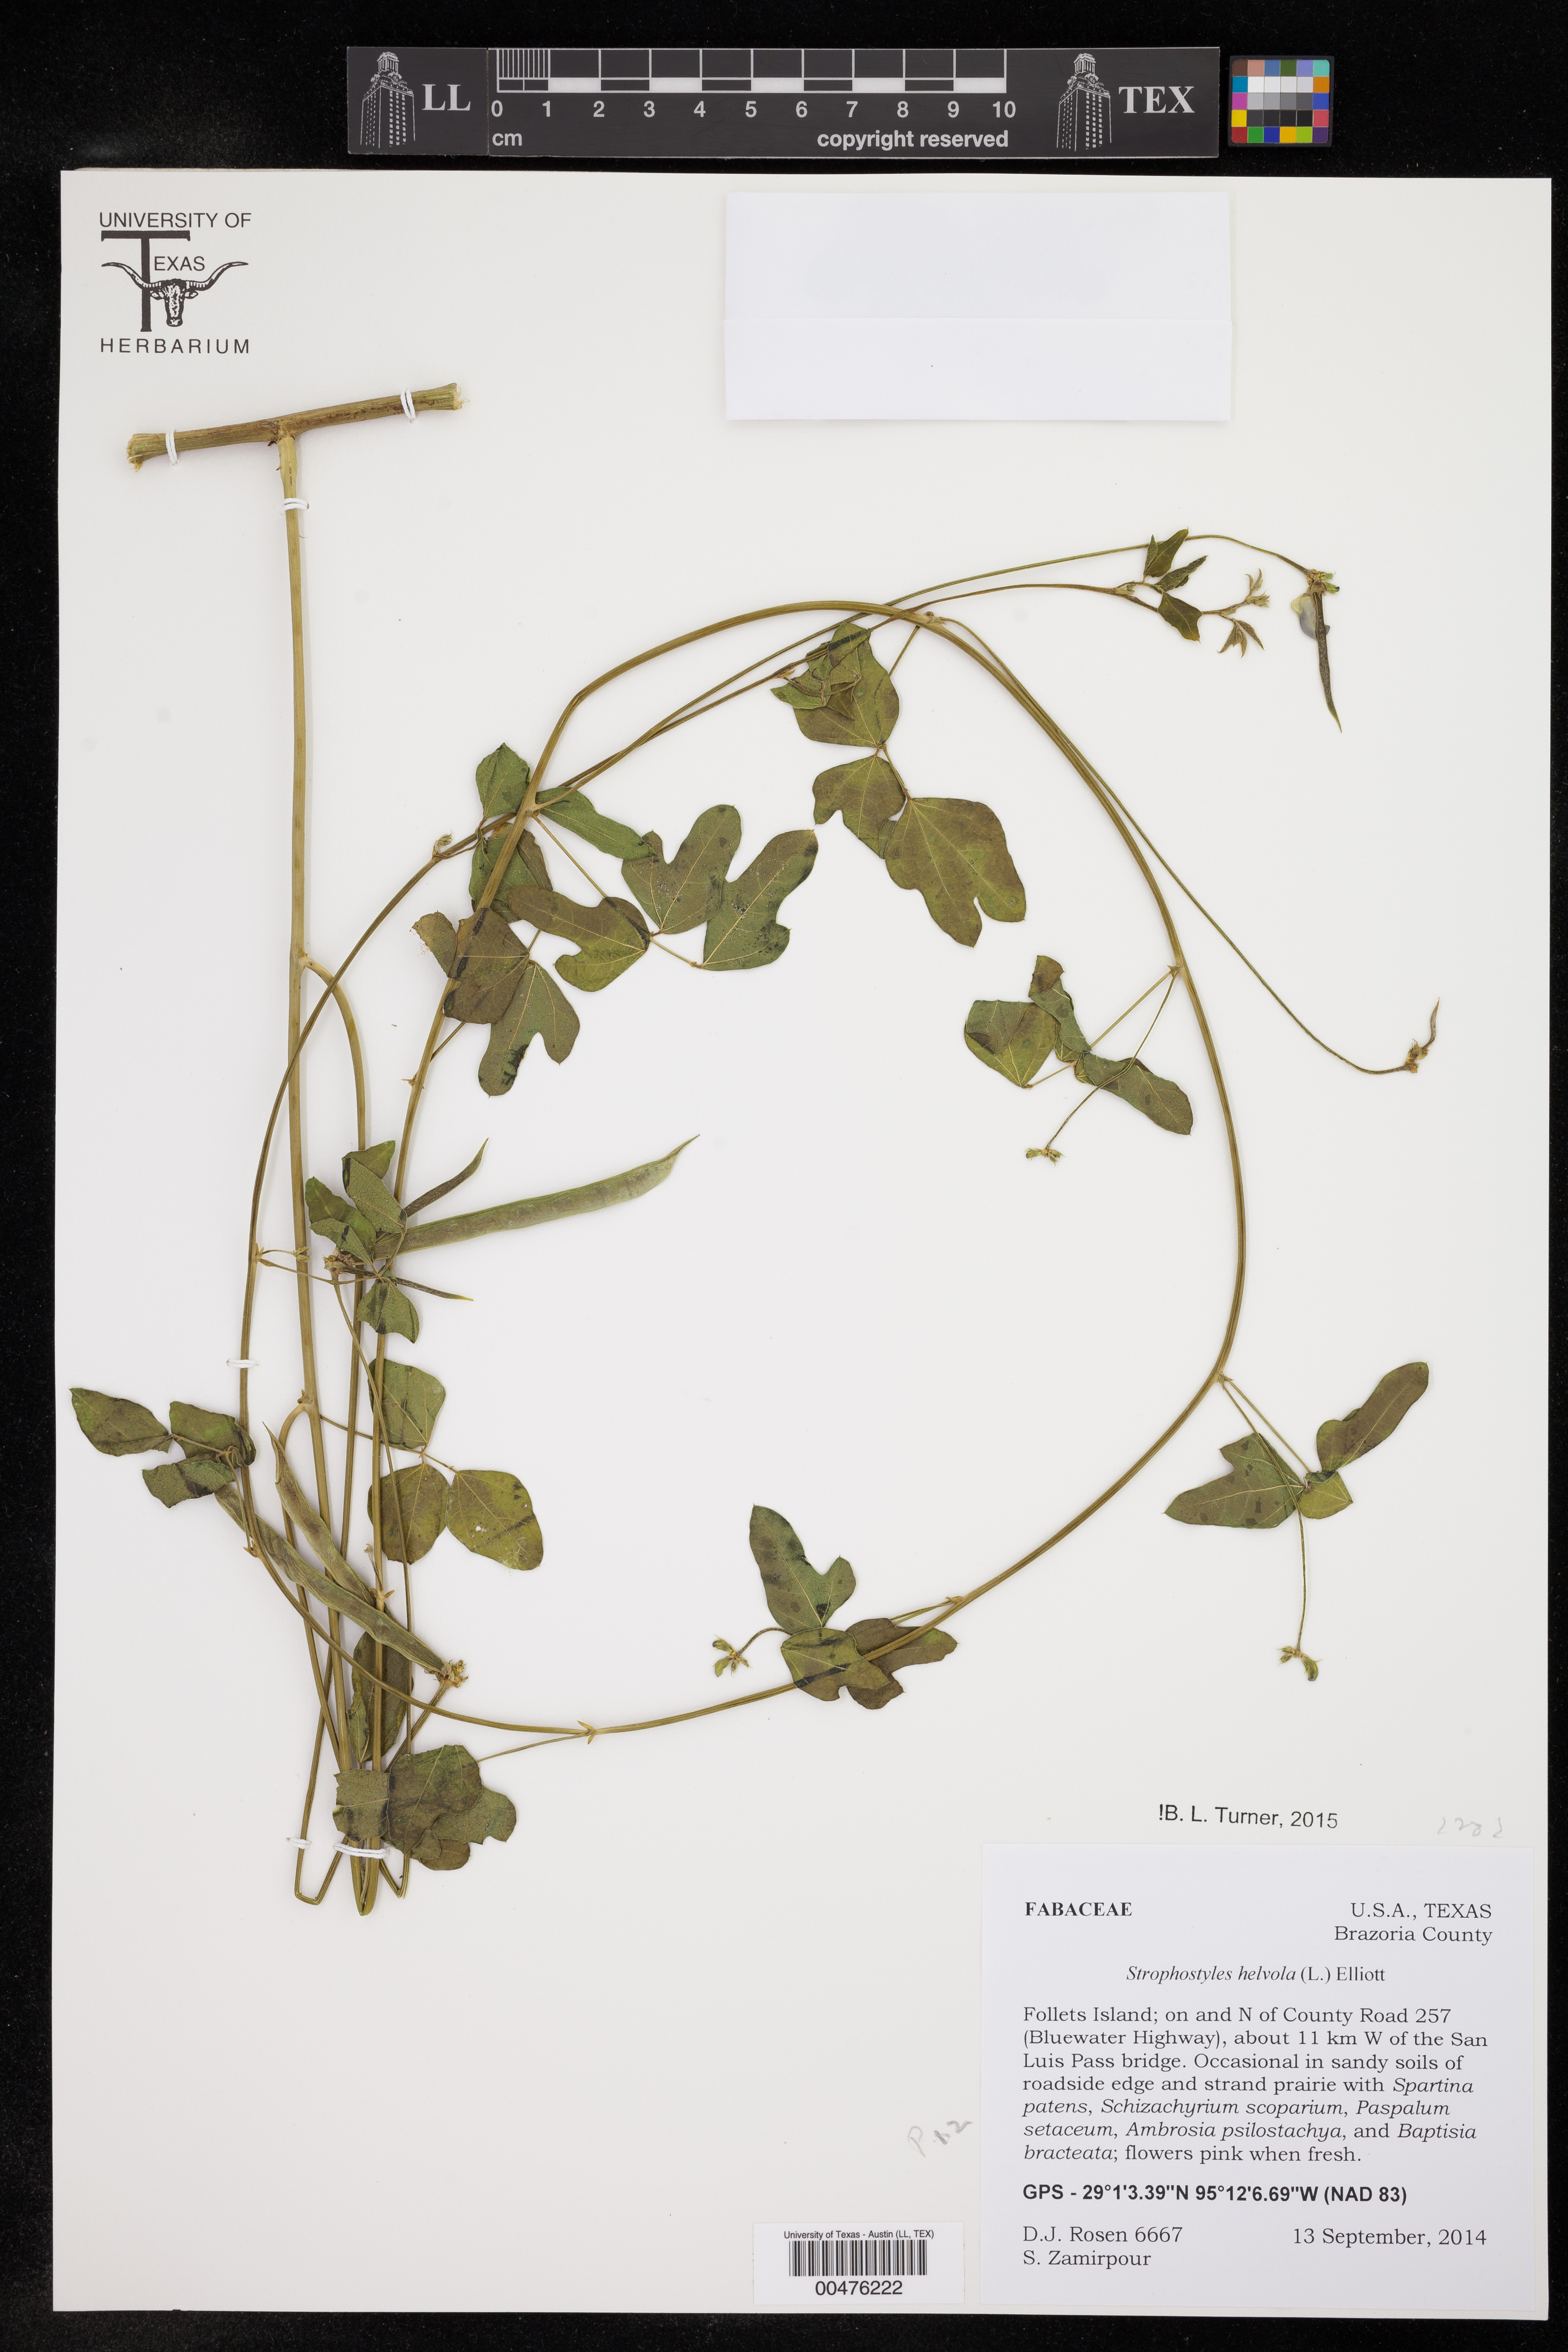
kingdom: Plantae
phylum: Tracheophyta
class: Magnoliopsida
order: Fabales
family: Fabaceae
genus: Strophostyles
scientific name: Strophostyles helvola
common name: Trailing wild bean
